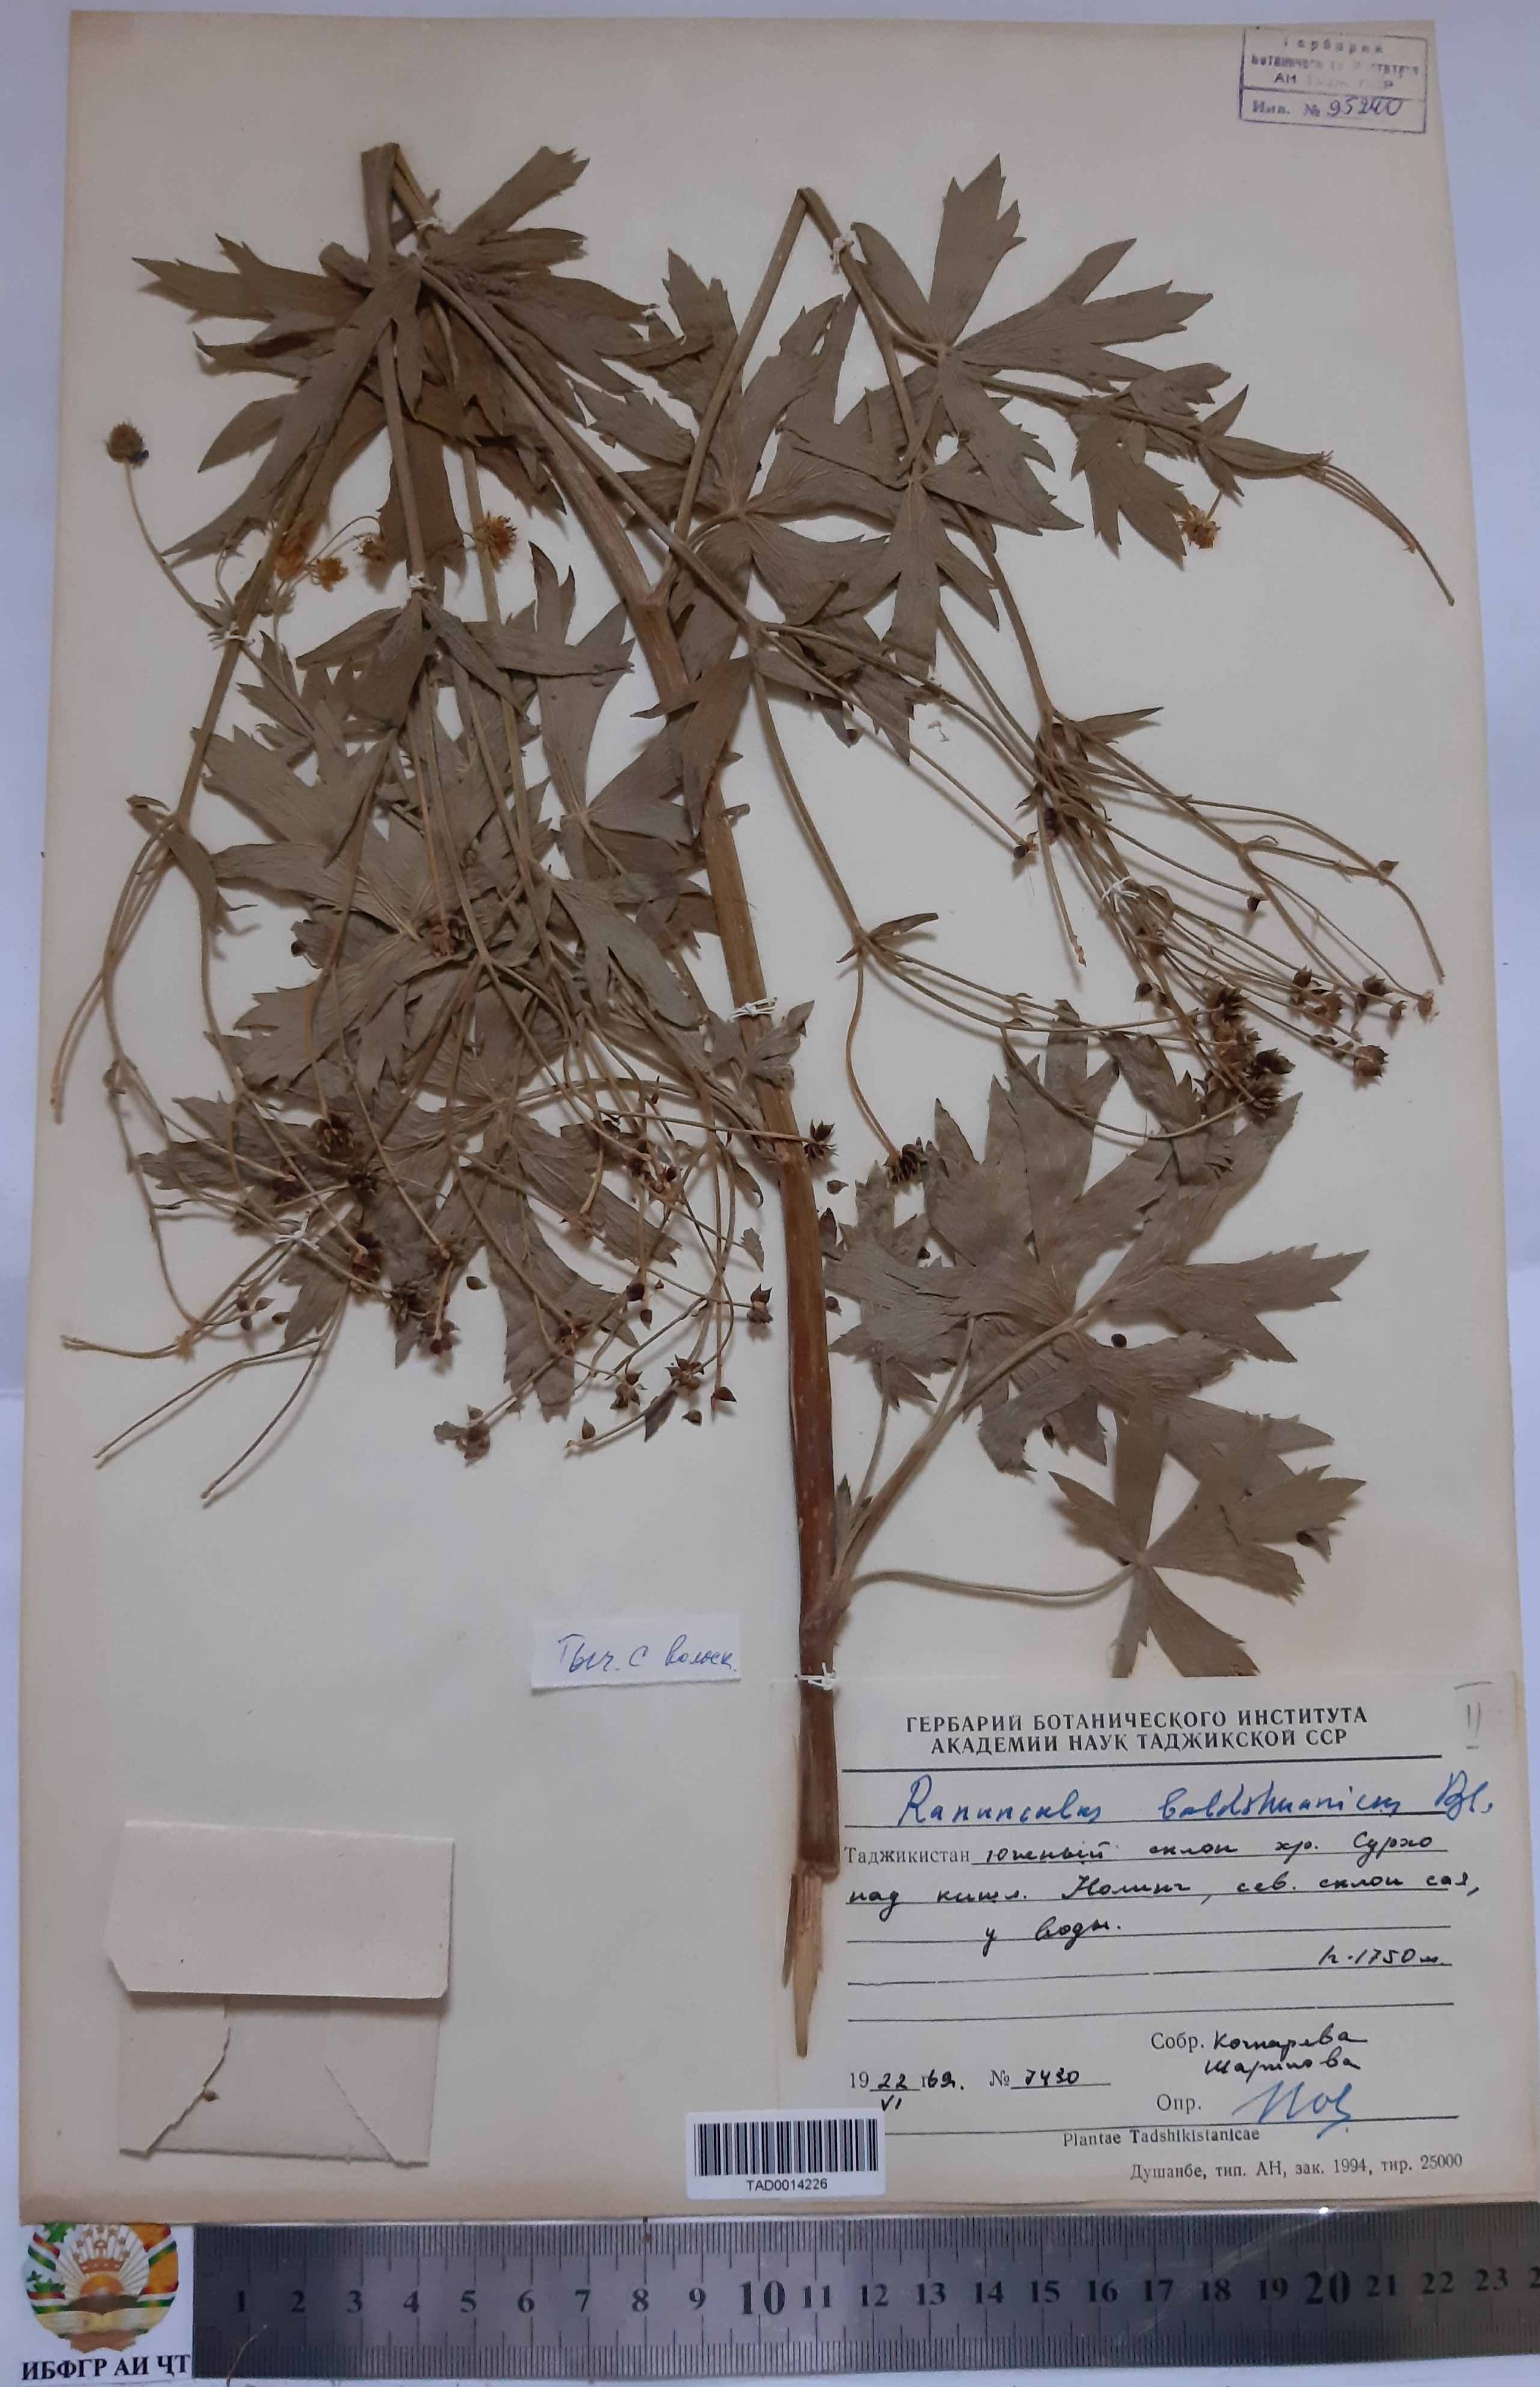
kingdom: Plantae
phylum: Tracheophyta
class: Magnoliopsida
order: Ranunculales
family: Ranunculaceae
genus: Ranunculus
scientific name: Ranunculus baldshuanicus
